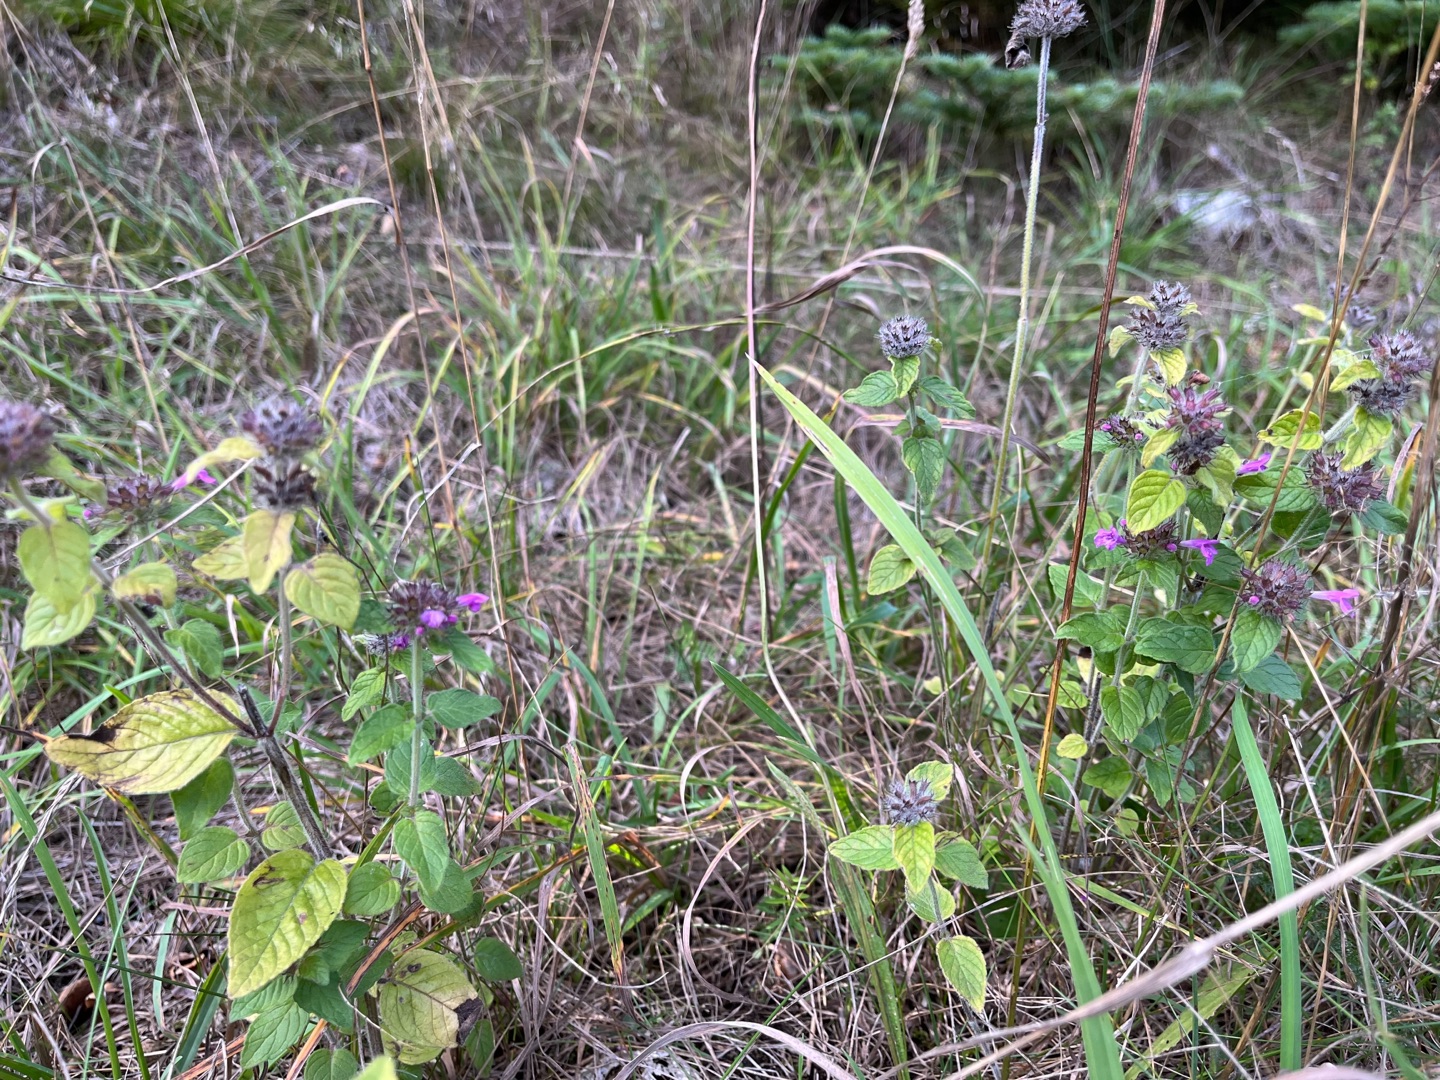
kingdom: Plantae
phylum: Tracheophyta
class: Magnoliopsida
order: Lamiales
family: Lamiaceae
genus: Clinopodium
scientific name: Clinopodium vulgare
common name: Kransbørste
